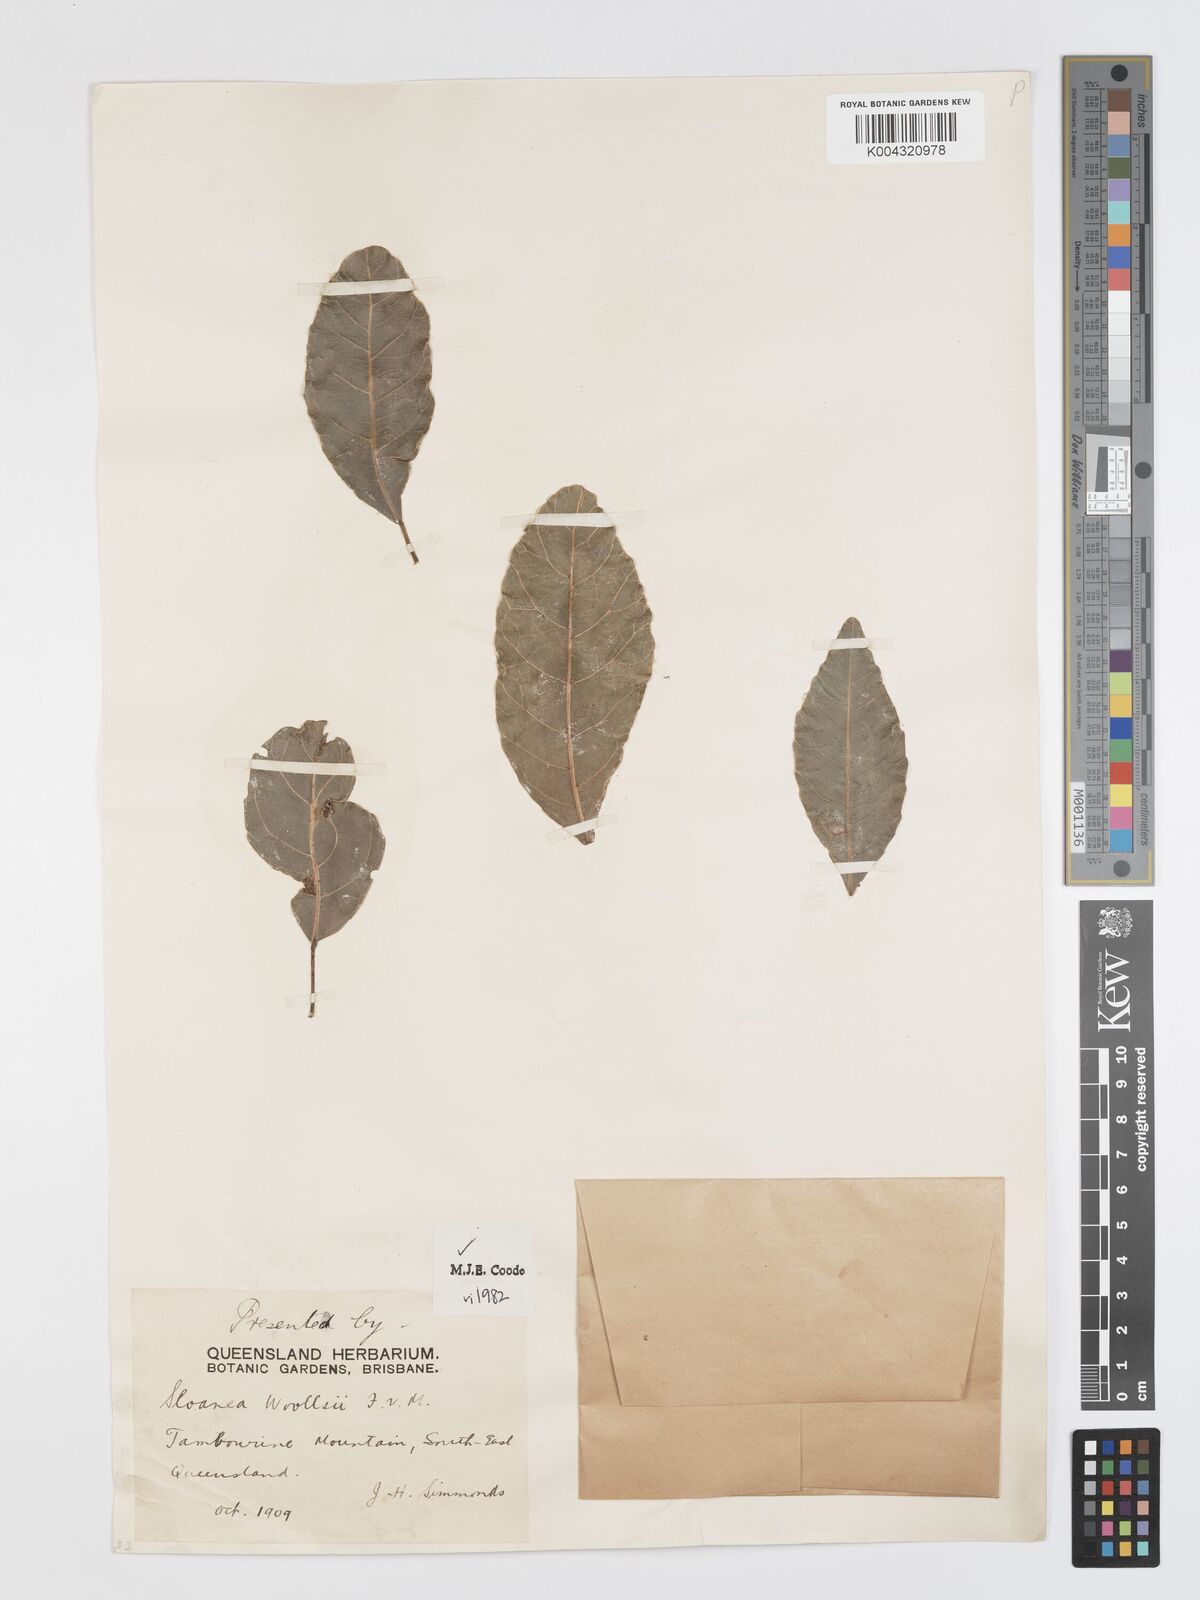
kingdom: Plantae
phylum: Tracheophyta
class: Magnoliopsida
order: Oxalidales
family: Elaeocarpaceae
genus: Sloanea
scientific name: Sloanea woollsii
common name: Yellow carabeen
